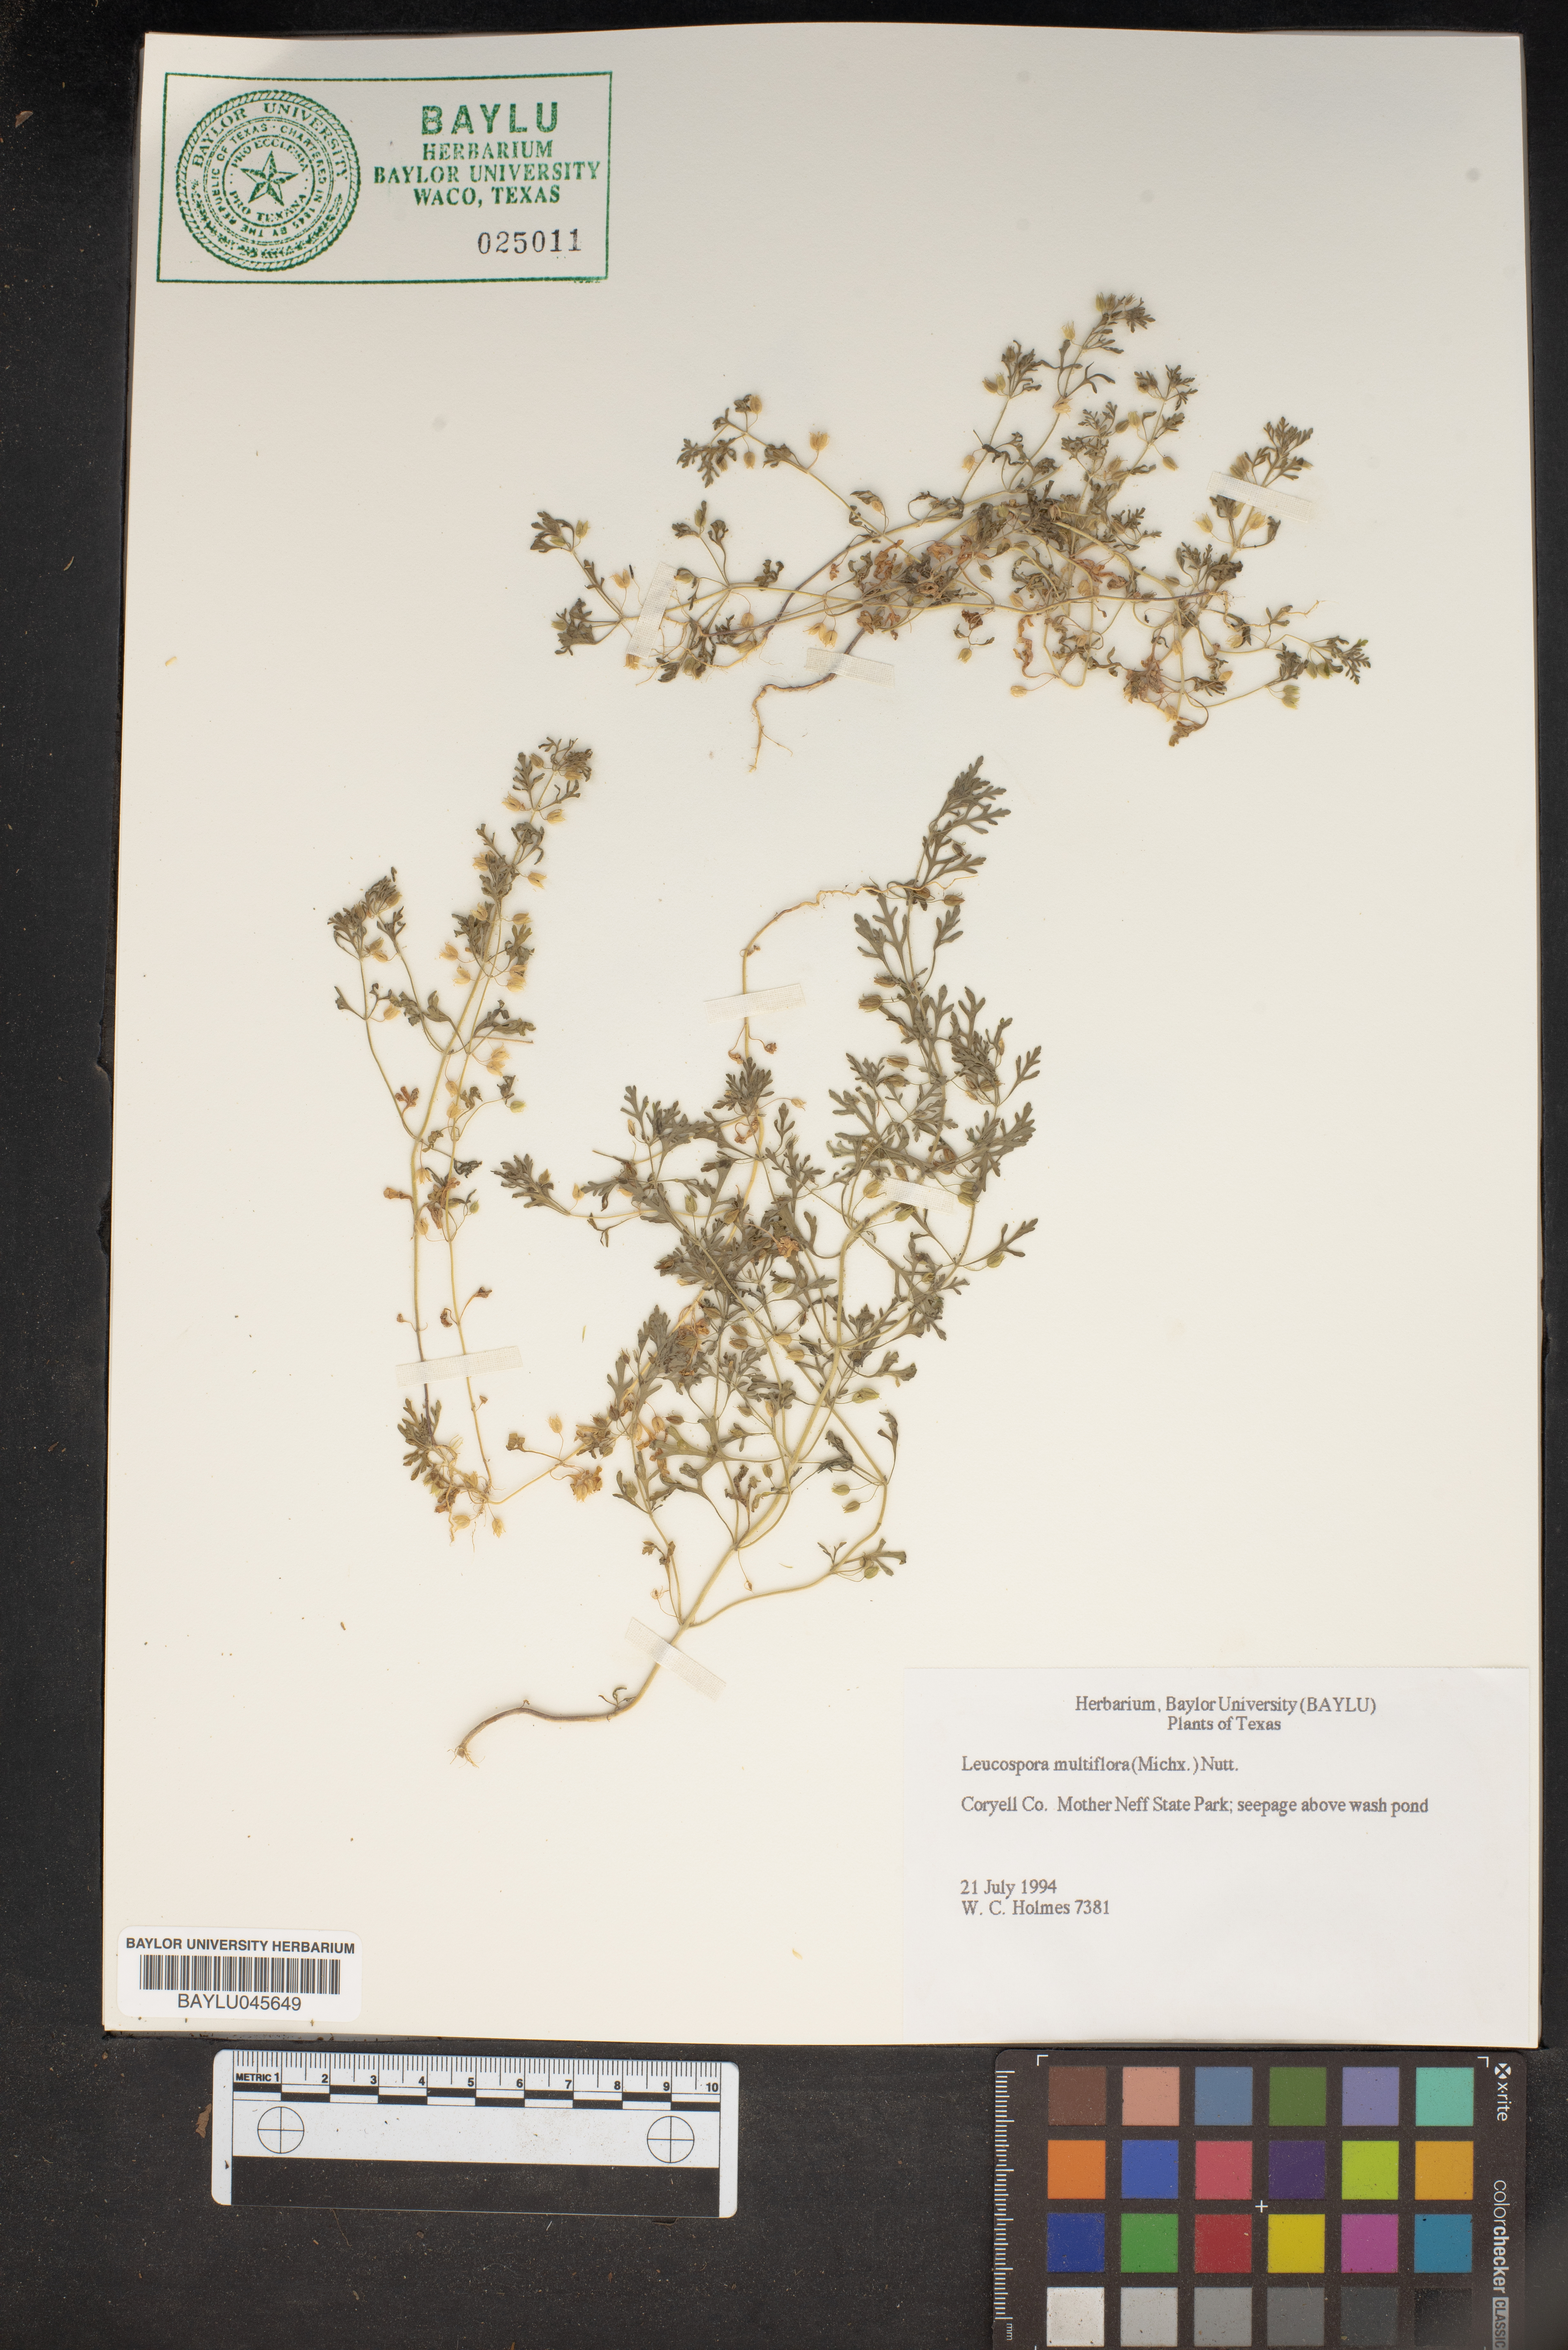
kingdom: Plantae
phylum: Tracheophyta
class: Magnoliopsida
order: Lamiales
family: Plantaginaceae
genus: Leucospora
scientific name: Leucospora multifida
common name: Narrow-leaf paleseed
